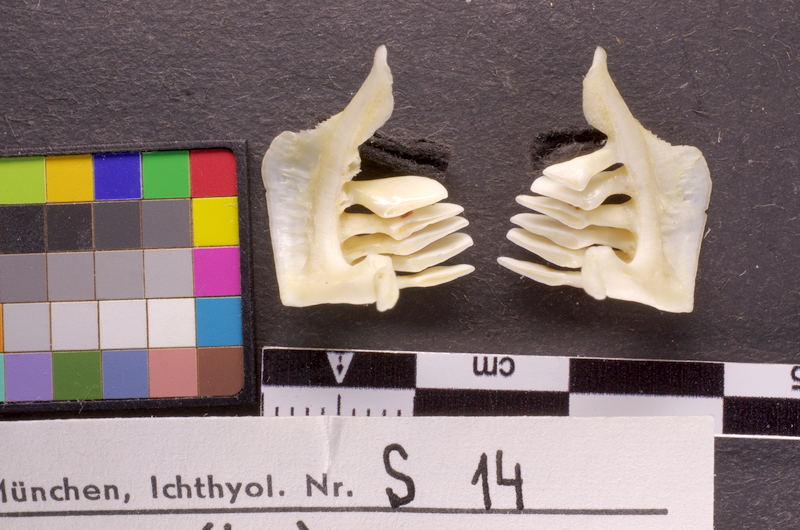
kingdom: Animalia
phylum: Chordata
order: Cypriniformes
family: Cyprinidae
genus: Chondrostoma
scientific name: Chondrostoma nasus
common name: Nase
